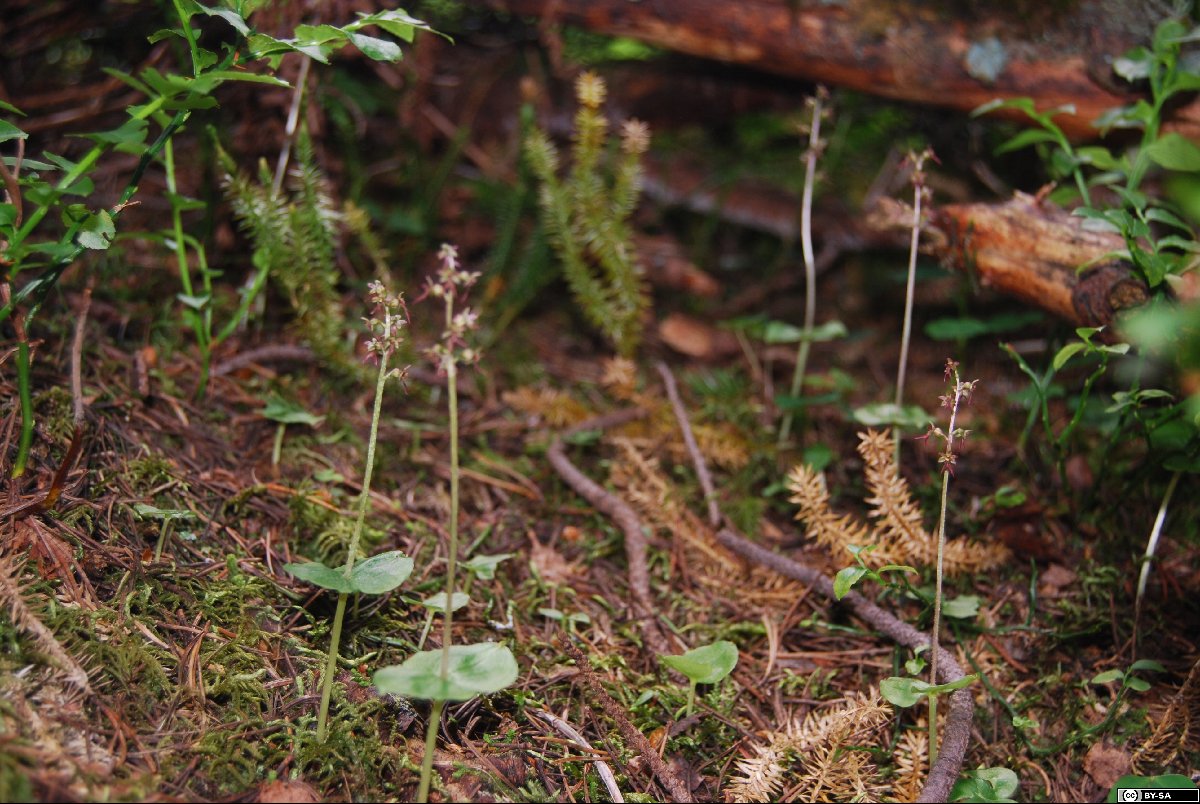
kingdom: Plantae
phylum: Tracheophyta
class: Liliopsida
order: Asparagales
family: Orchidaceae
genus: Neottia
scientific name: Neottia cordata
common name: Lesser twayblade
